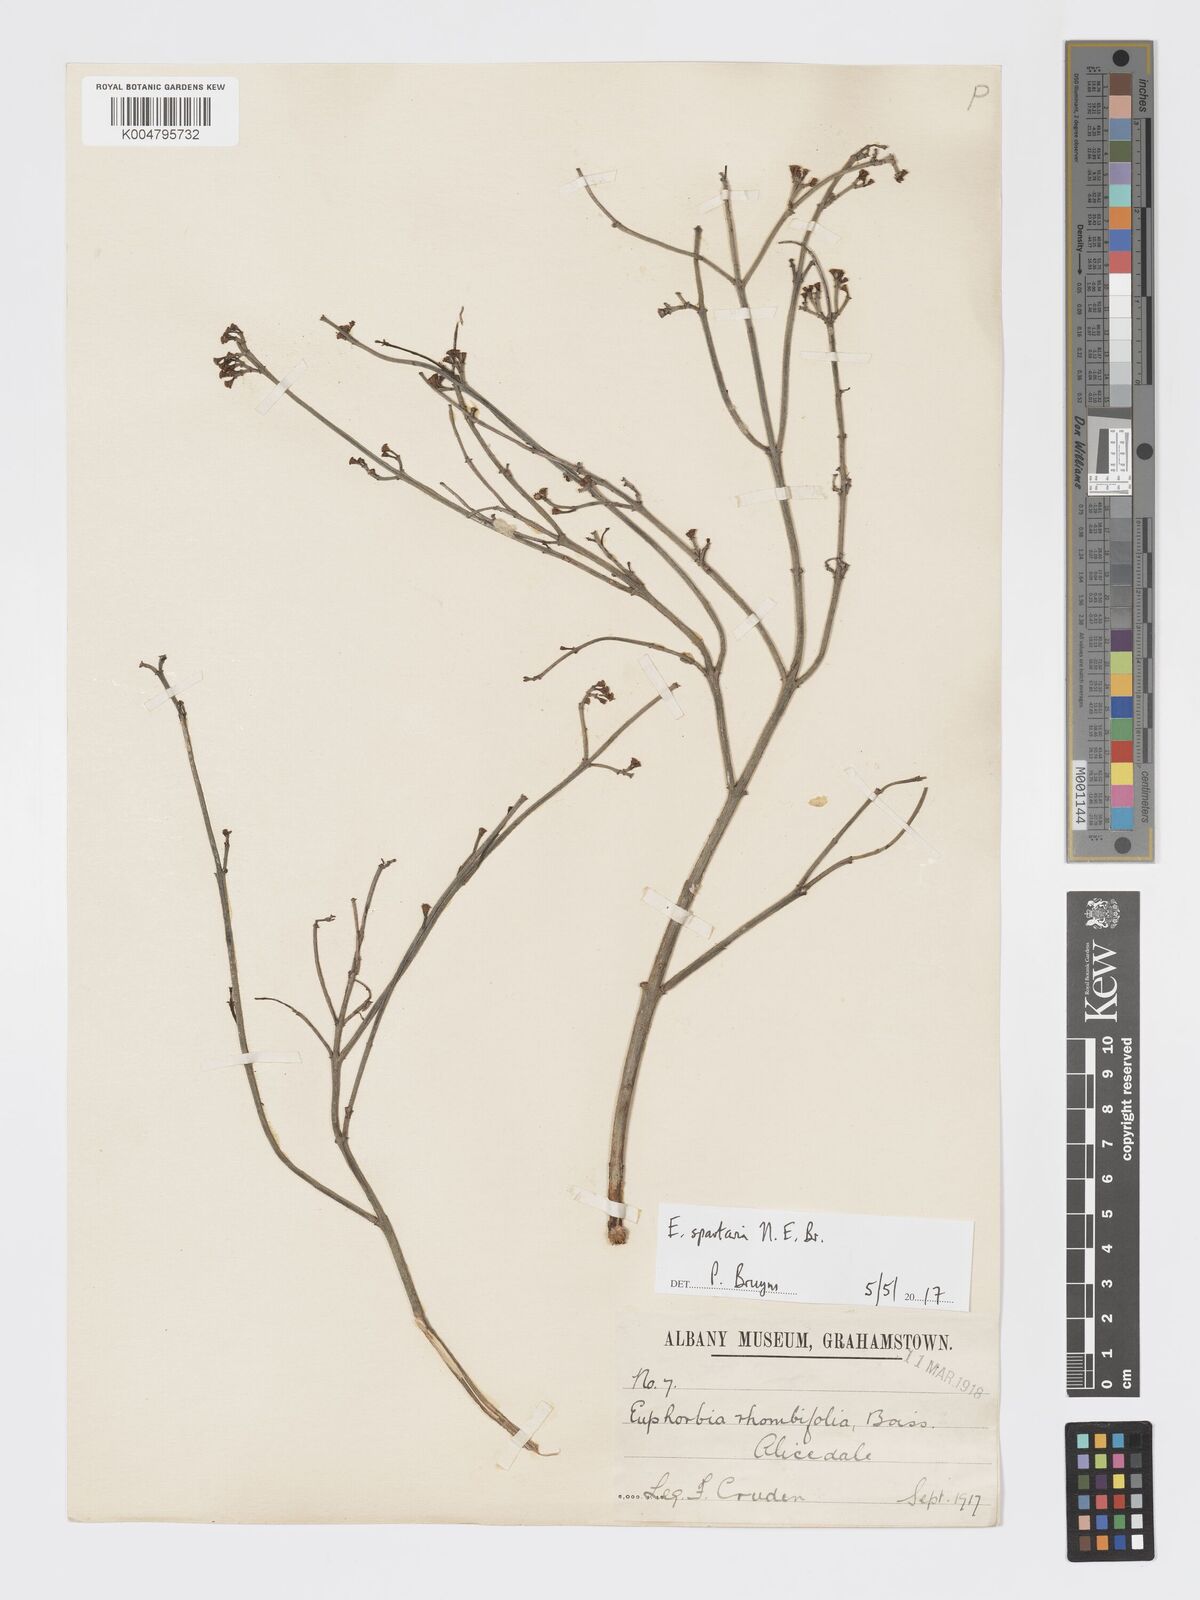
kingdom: Plantae
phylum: Tracheophyta
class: Magnoliopsida
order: Malpighiales
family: Euphorbiaceae
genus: Euphorbia
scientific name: Euphorbia spartaria
